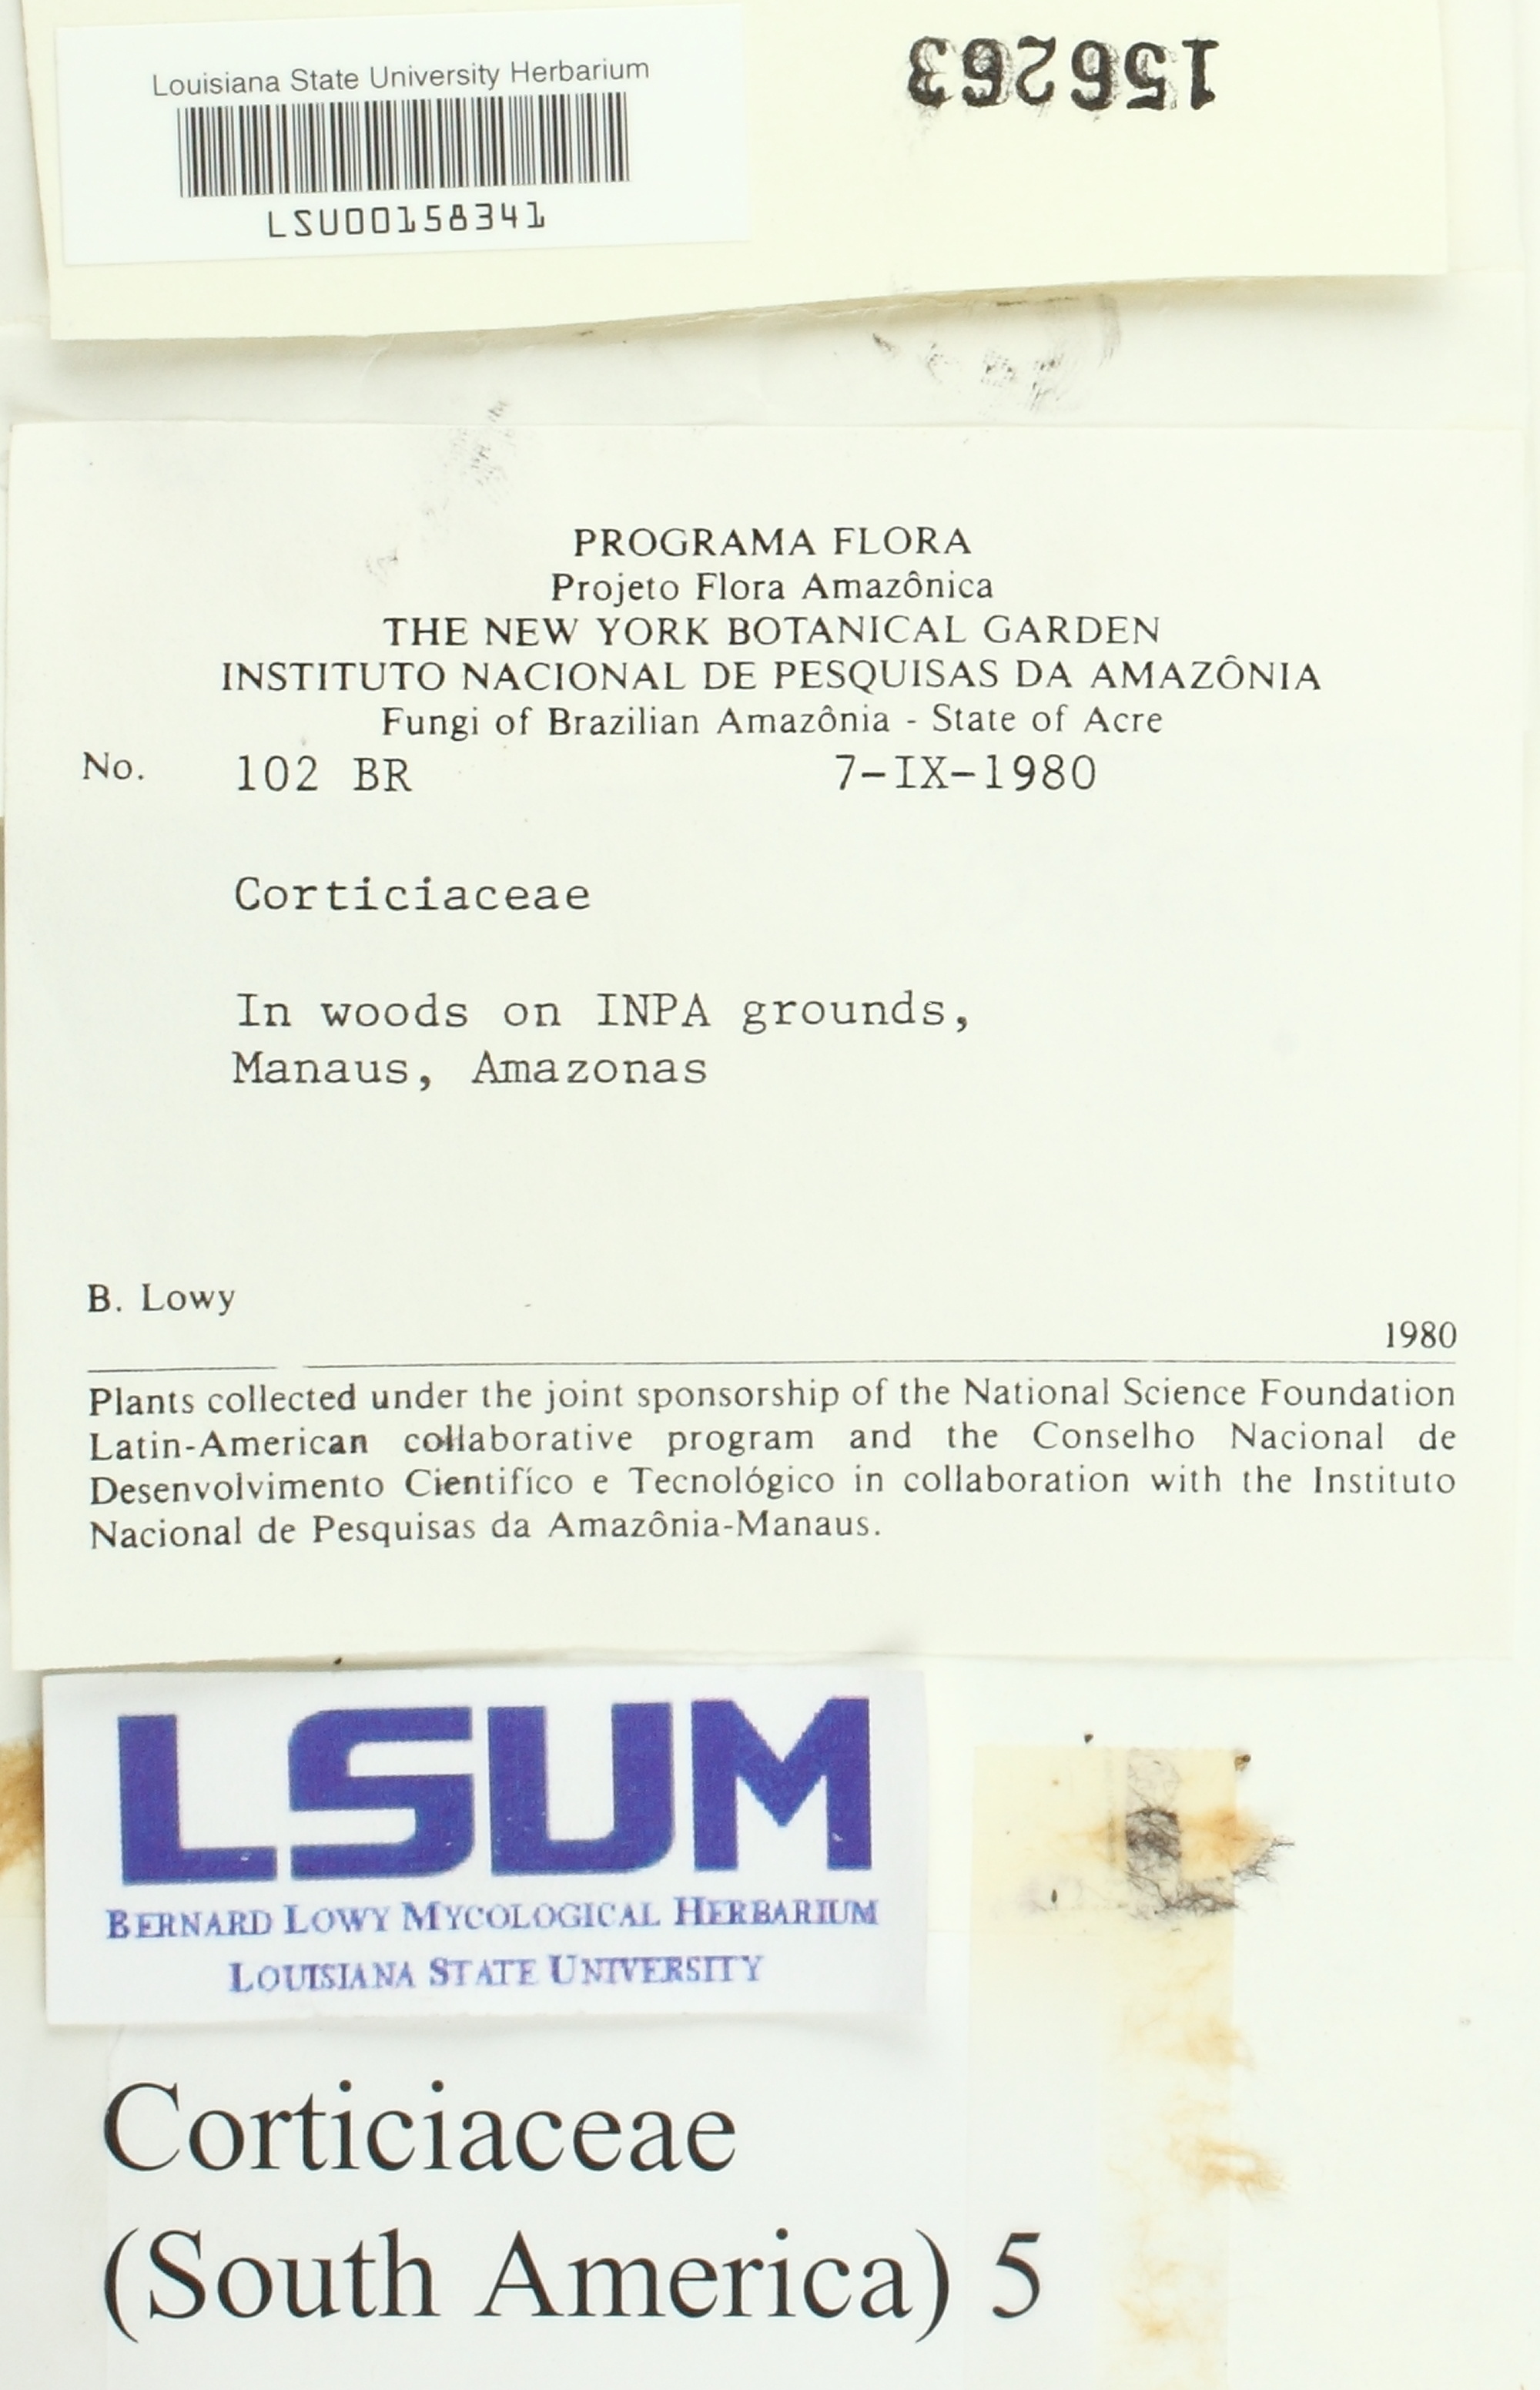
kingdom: Fungi
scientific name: Fungi
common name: Fungi
